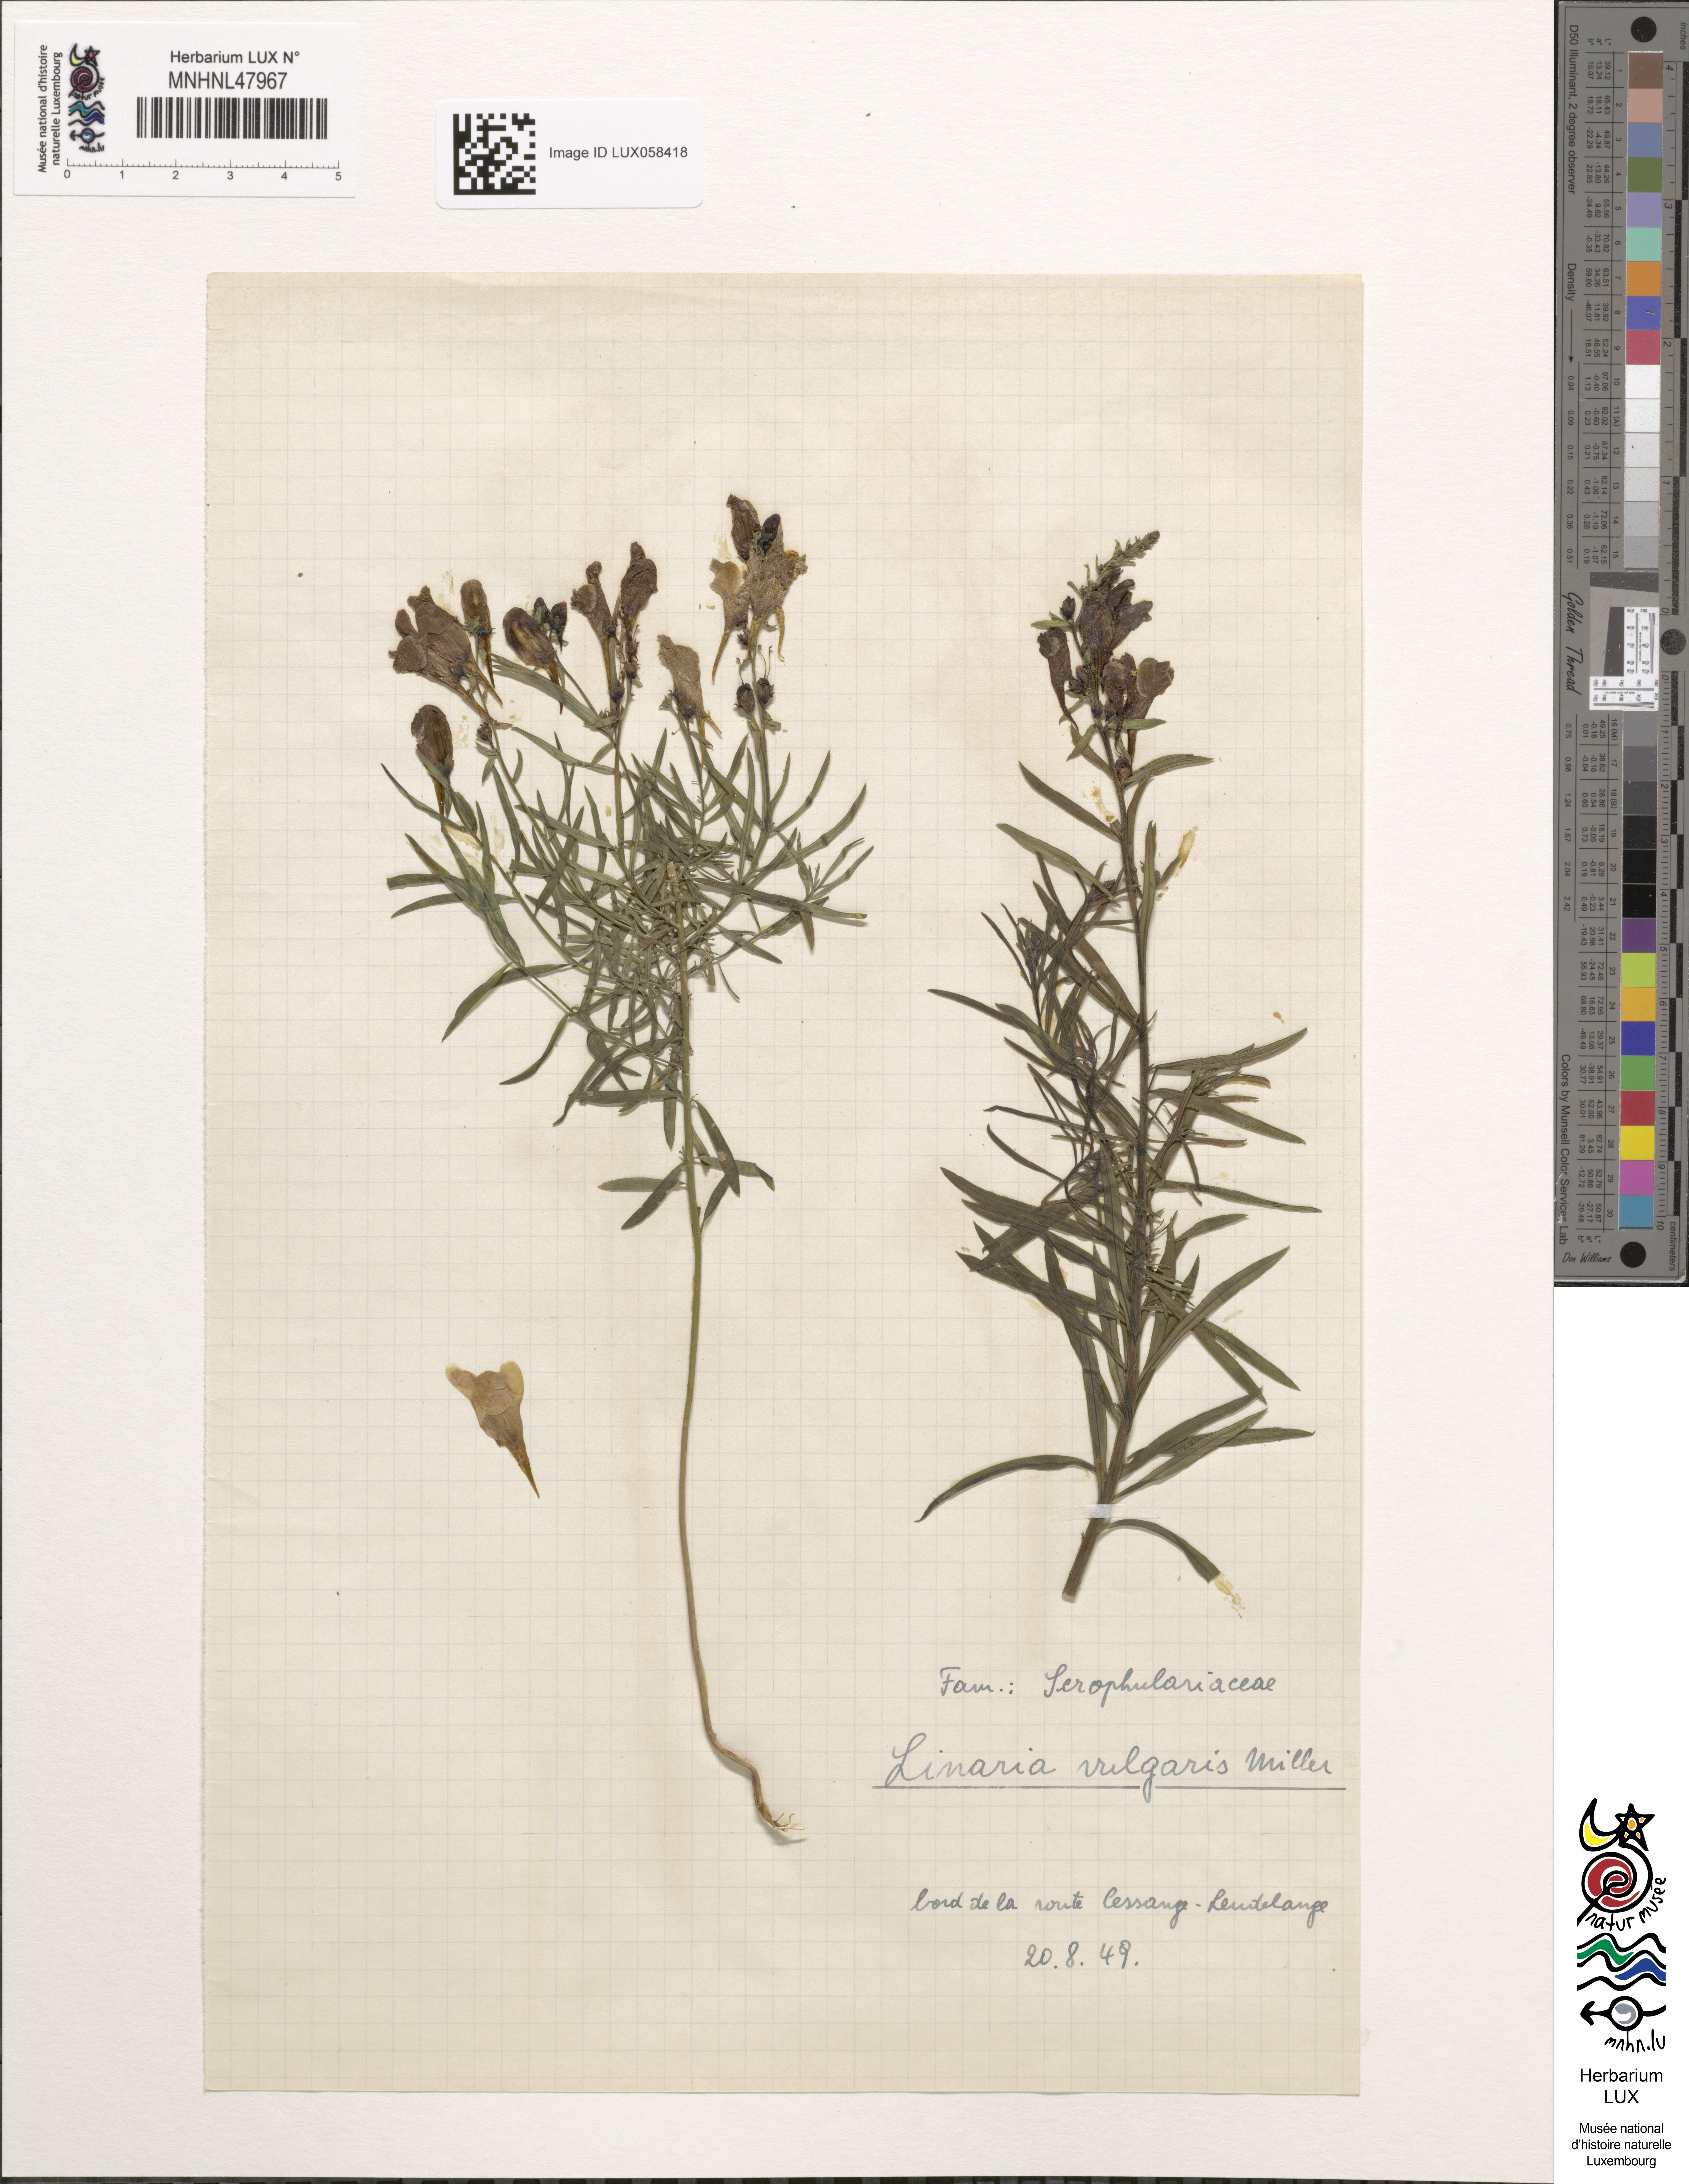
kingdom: Plantae
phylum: Tracheophyta
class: Magnoliopsida
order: Lamiales
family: Plantaginaceae
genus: Linaria
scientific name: Linaria vulgaris
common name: Butter and eggs
